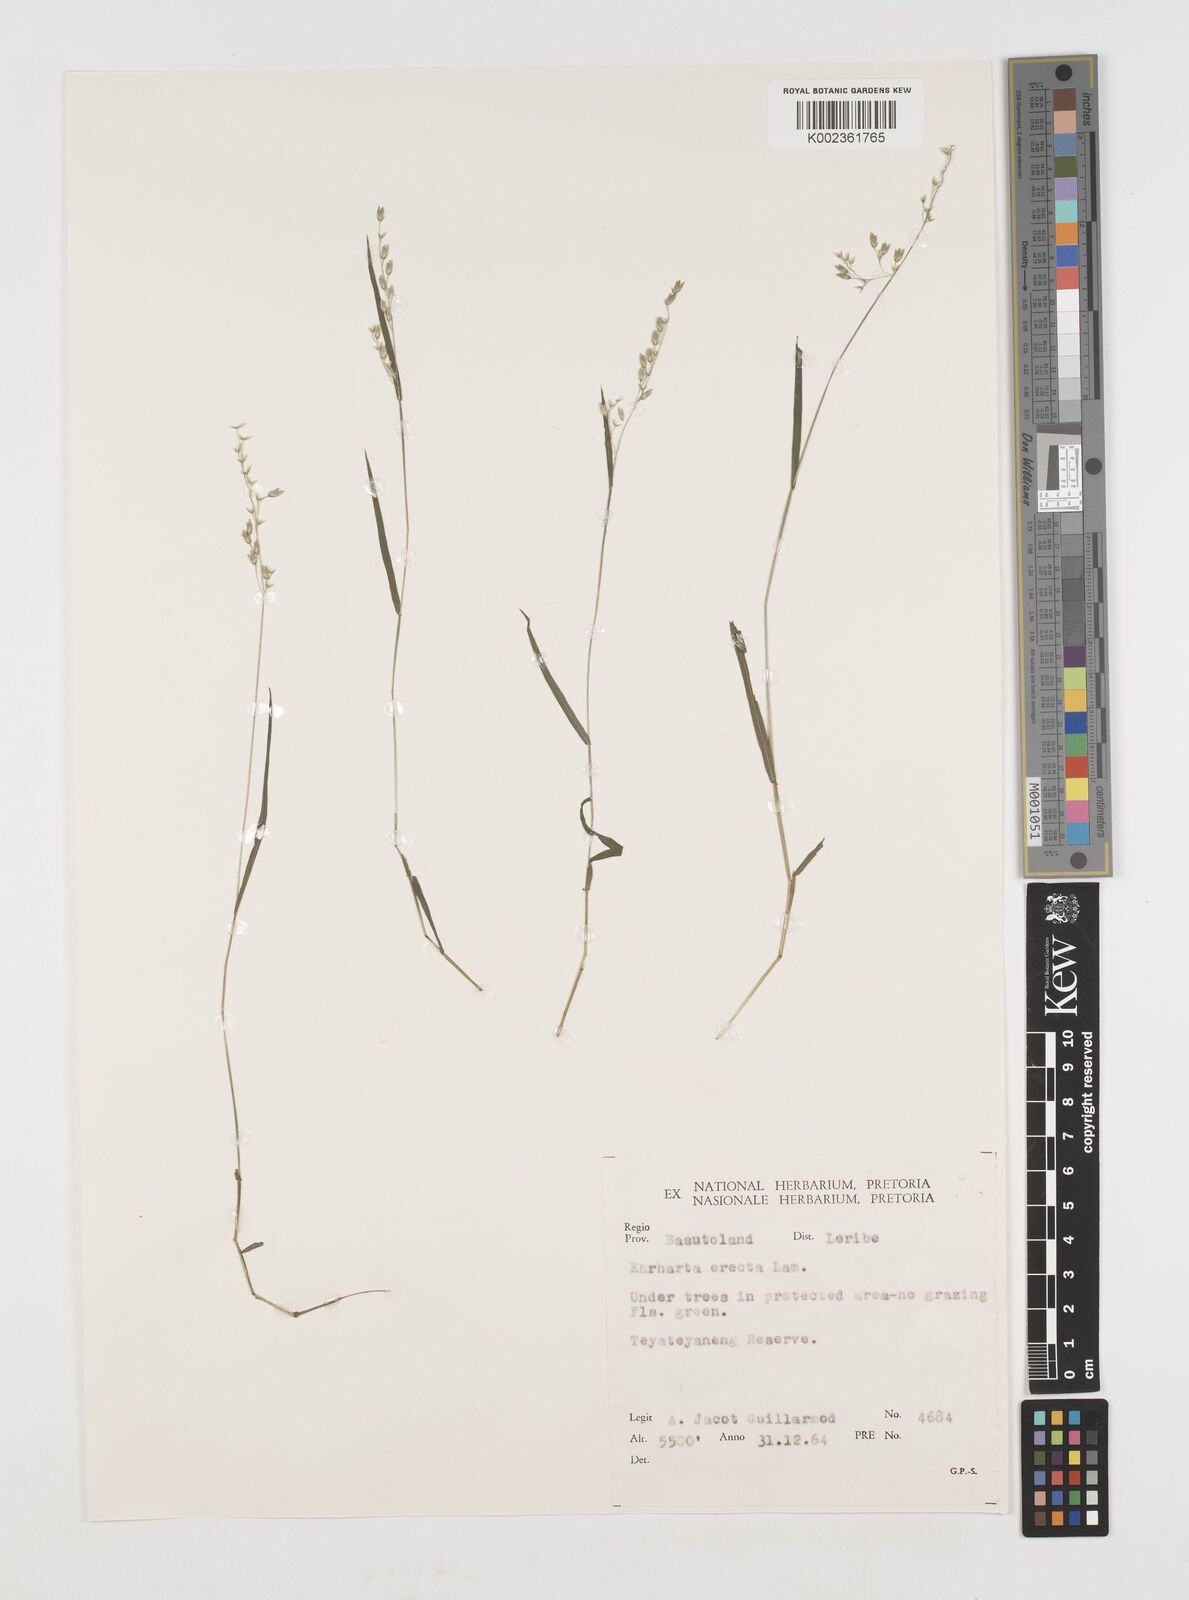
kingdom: Plantae
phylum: Tracheophyta
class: Liliopsida
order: Poales
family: Poaceae
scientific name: Poaceae
